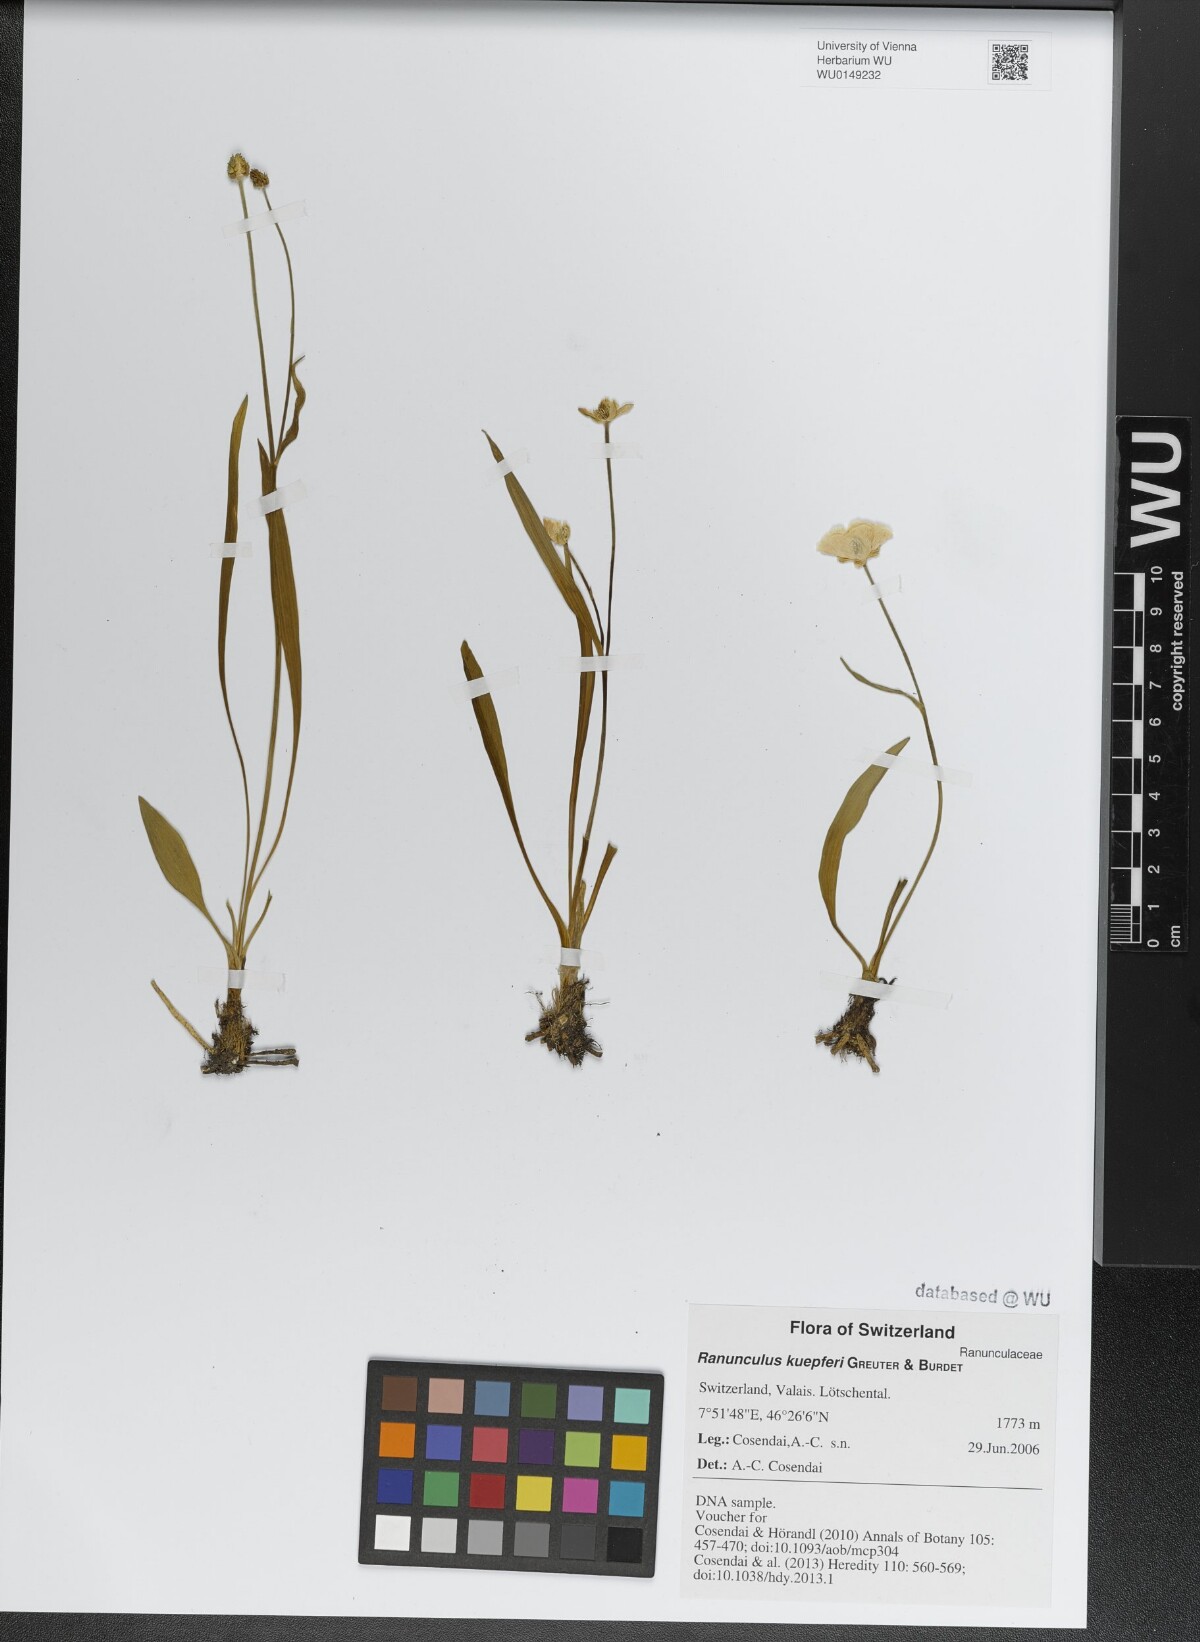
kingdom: Plantae
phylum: Tracheophyta
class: Magnoliopsida
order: Ranunculales
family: Ranunculaceae
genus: Ranunculus
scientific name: Ranunculus kuepferi
